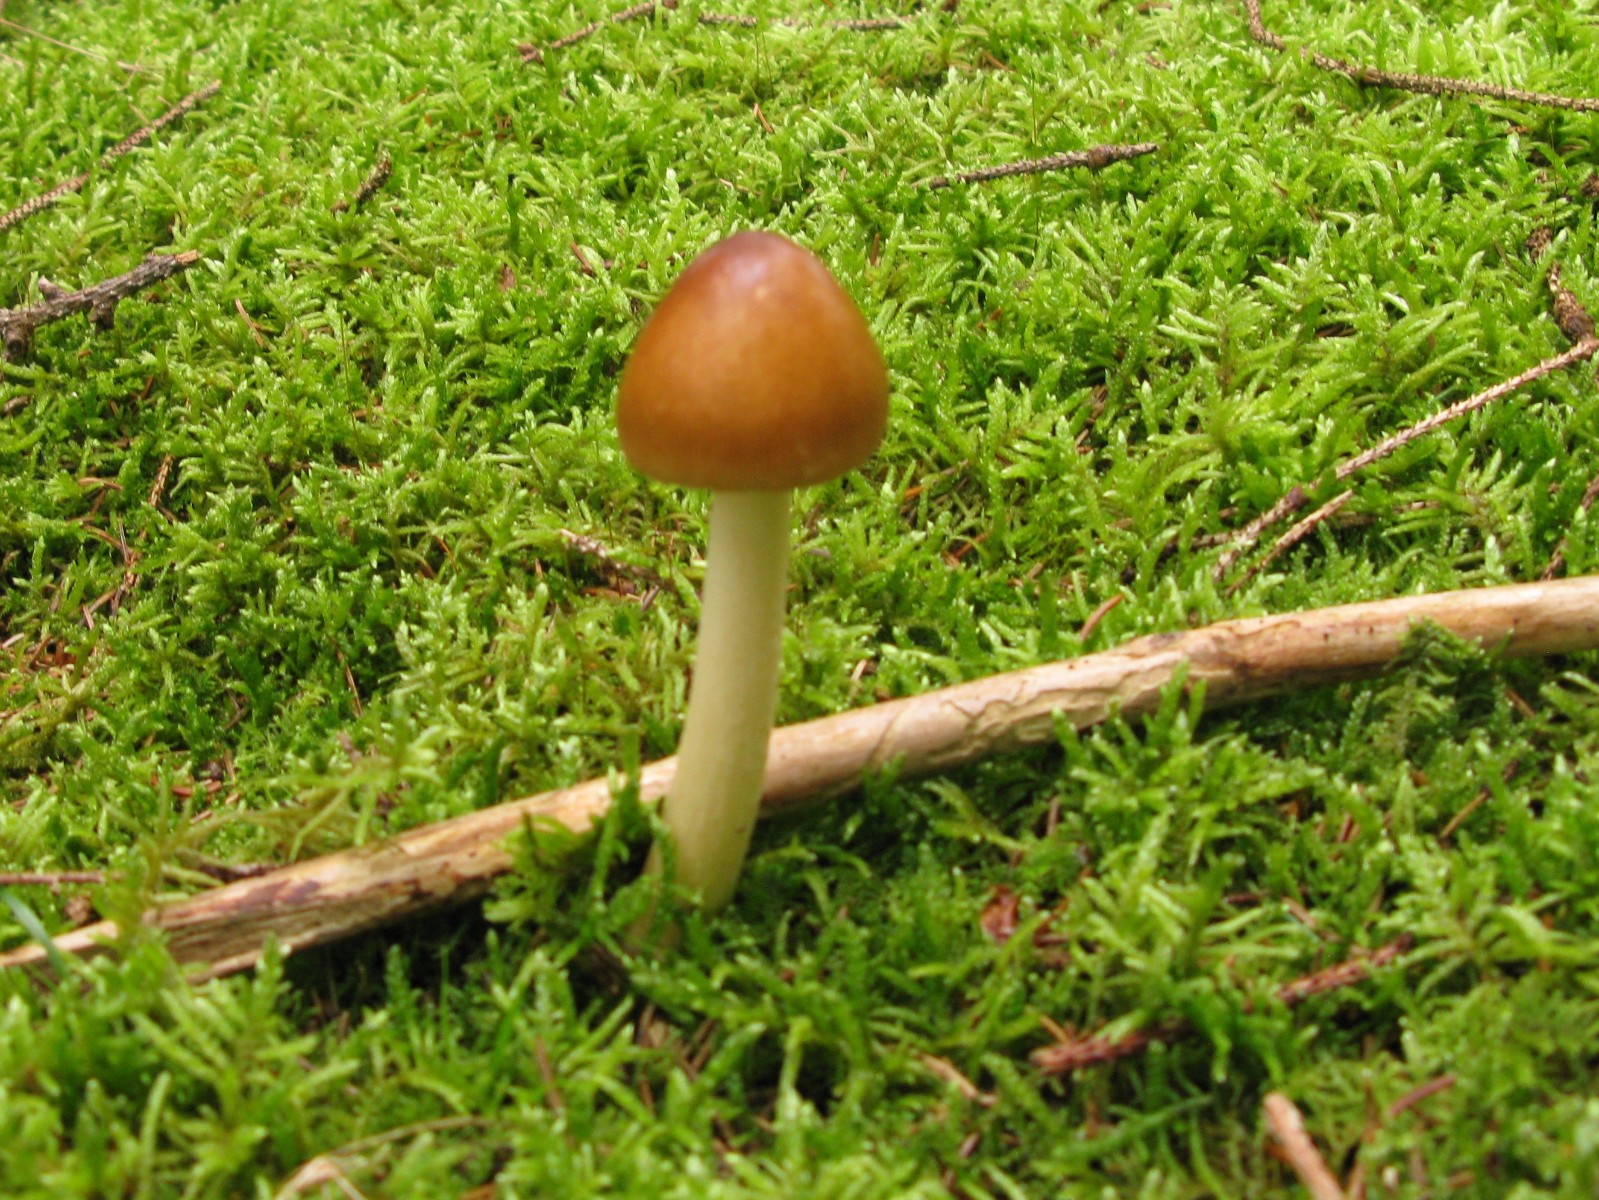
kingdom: Fungi
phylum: Basidiomycota
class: Agaricomycetes
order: Agaricales
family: Amanitaceae
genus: Amanita
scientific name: Amanita fulva
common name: brun kam-fluesvamp
